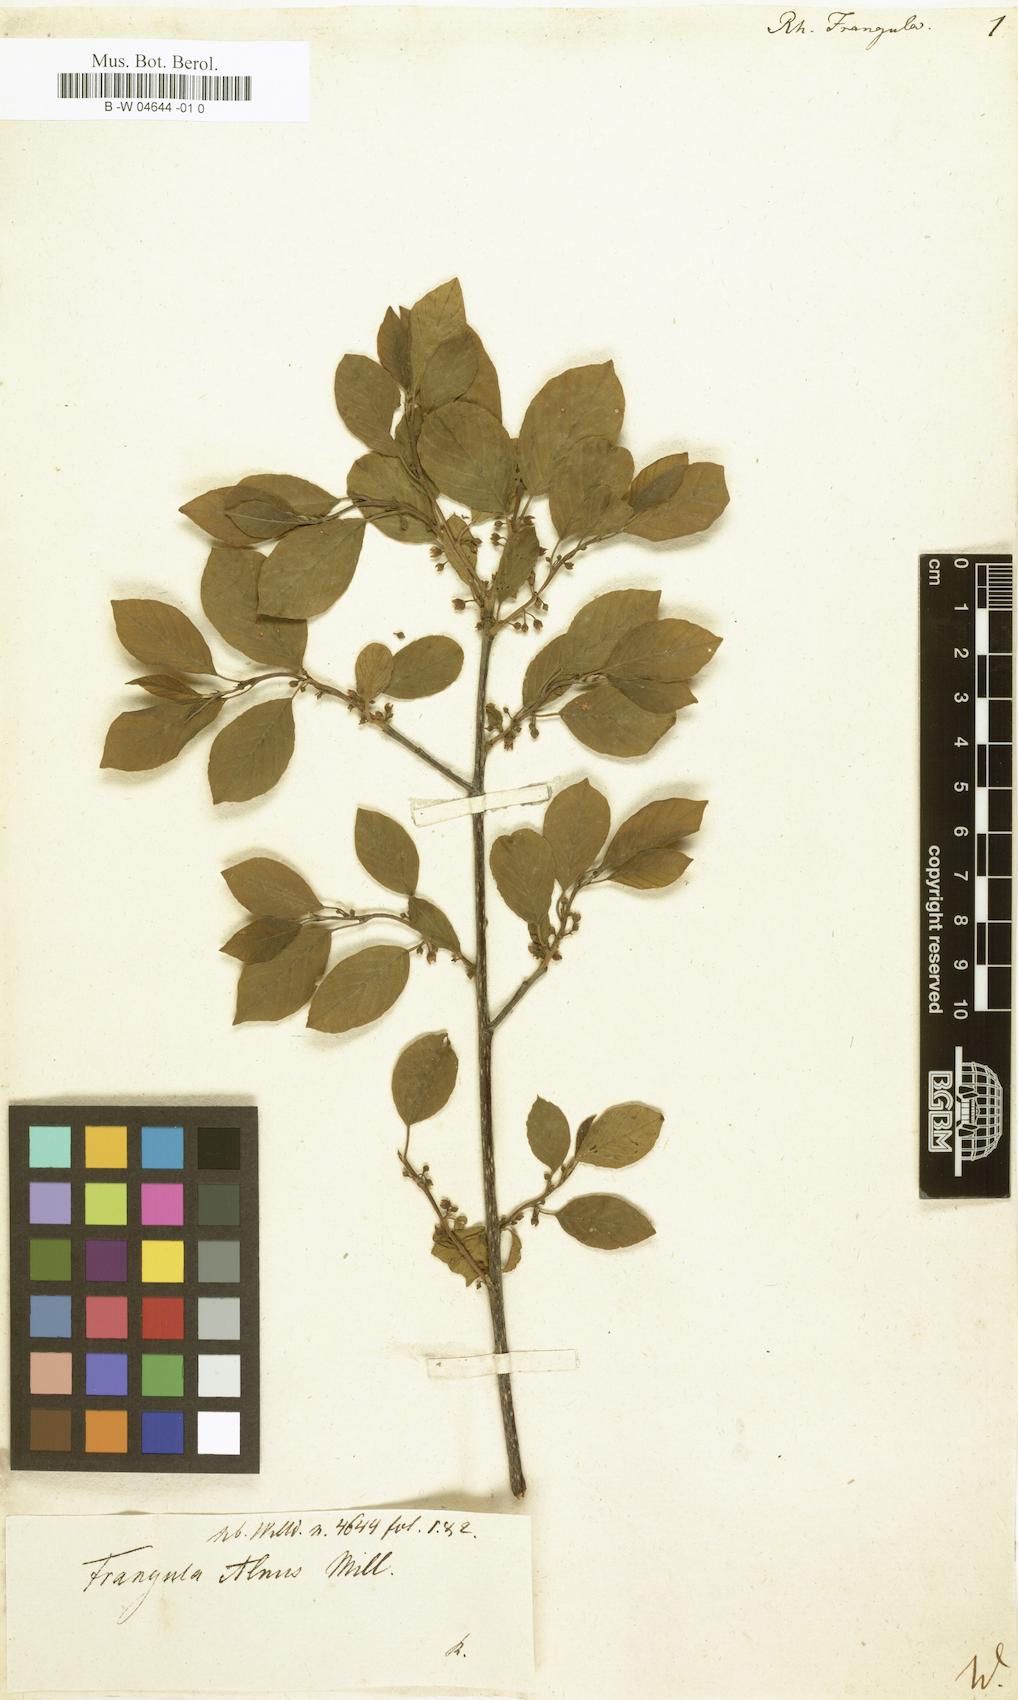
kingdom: Plantae
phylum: Tracheophyta
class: Magnoliopsida
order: Rosales
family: Rhamnaceae
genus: Frangula
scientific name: Frangula alnus
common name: Alder buckthorn
